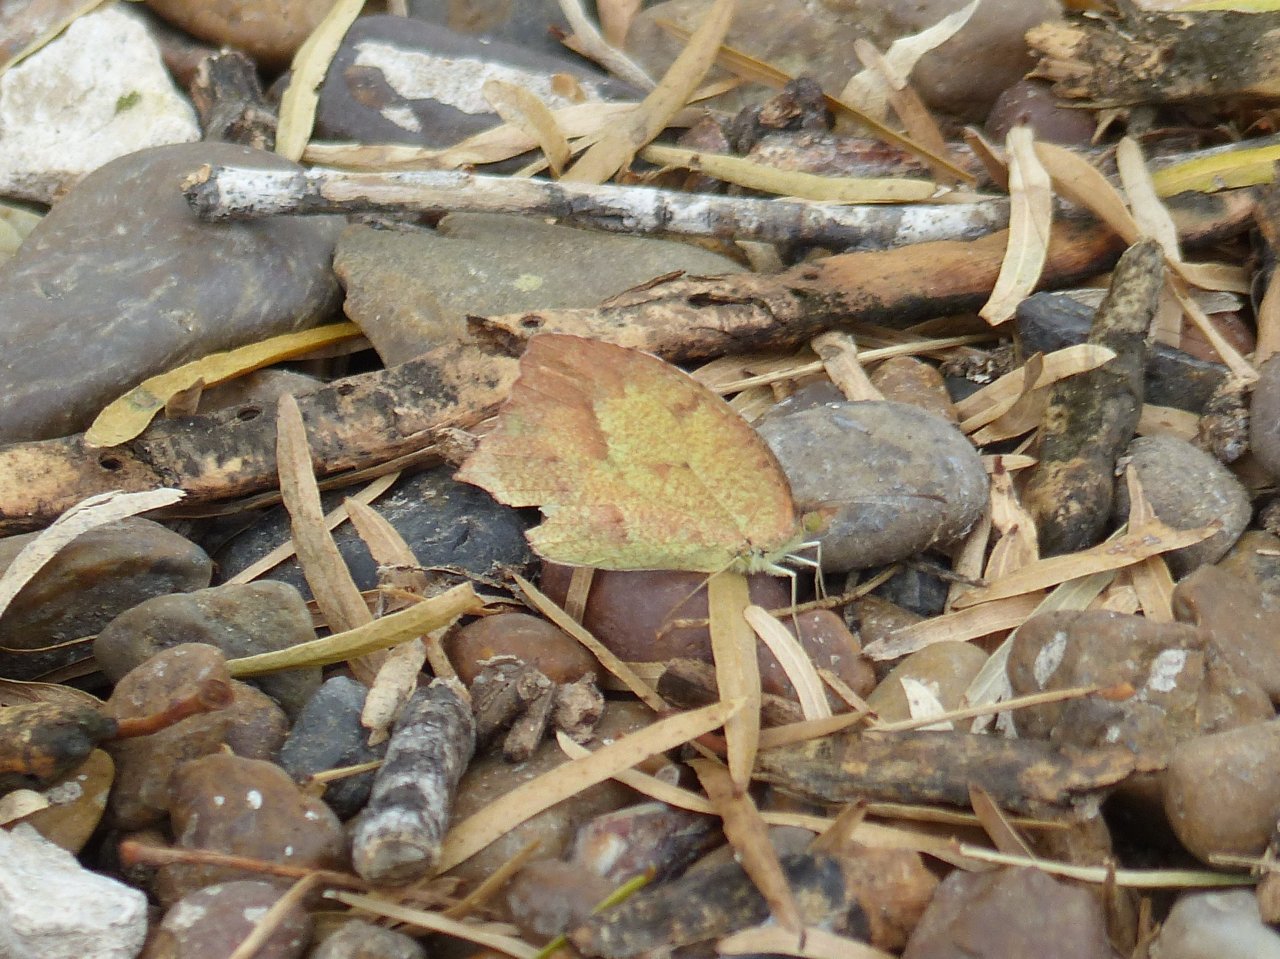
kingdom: Animalia
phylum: Arthropoda
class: Insecta
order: Lepidoptera
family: Pieridae
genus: Pyrisitia
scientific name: Pyrisitia proterpia
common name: Tailed Orange
